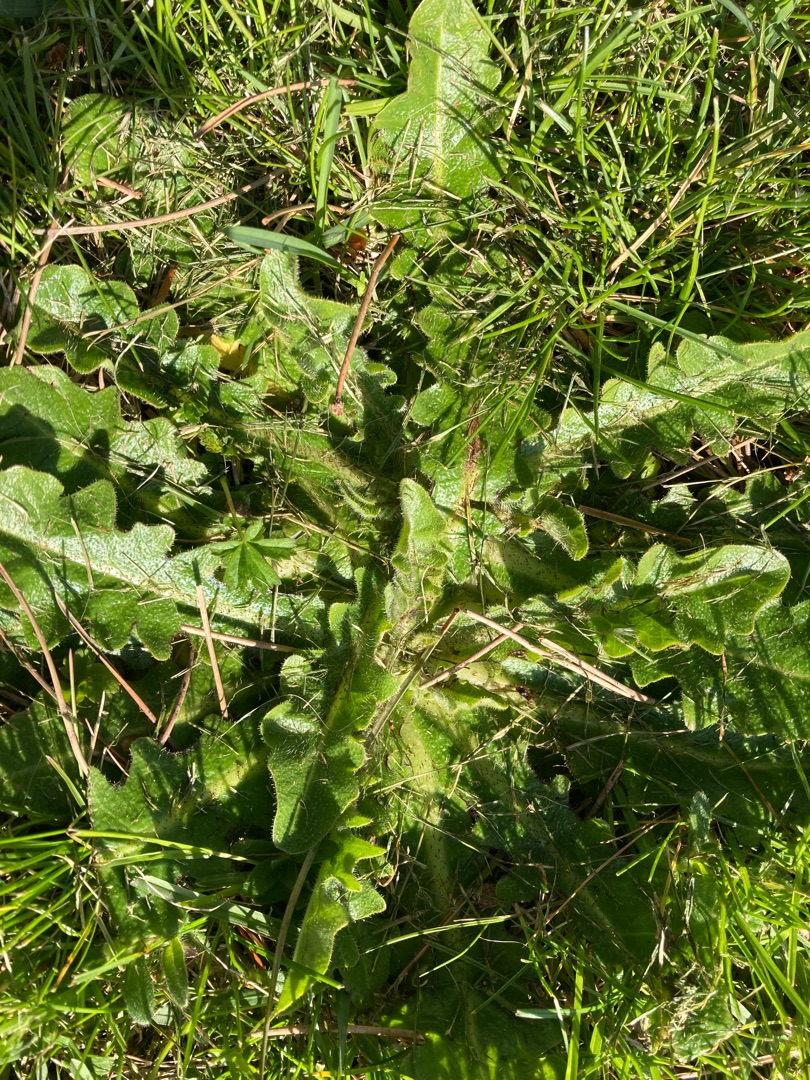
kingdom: Plantae
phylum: Tracheophyta
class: Magnoliopsida
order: Asterales
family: Asteraceae
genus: Hypochaeris
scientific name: Hypochaeris radicata
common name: Almindelig kongepen
